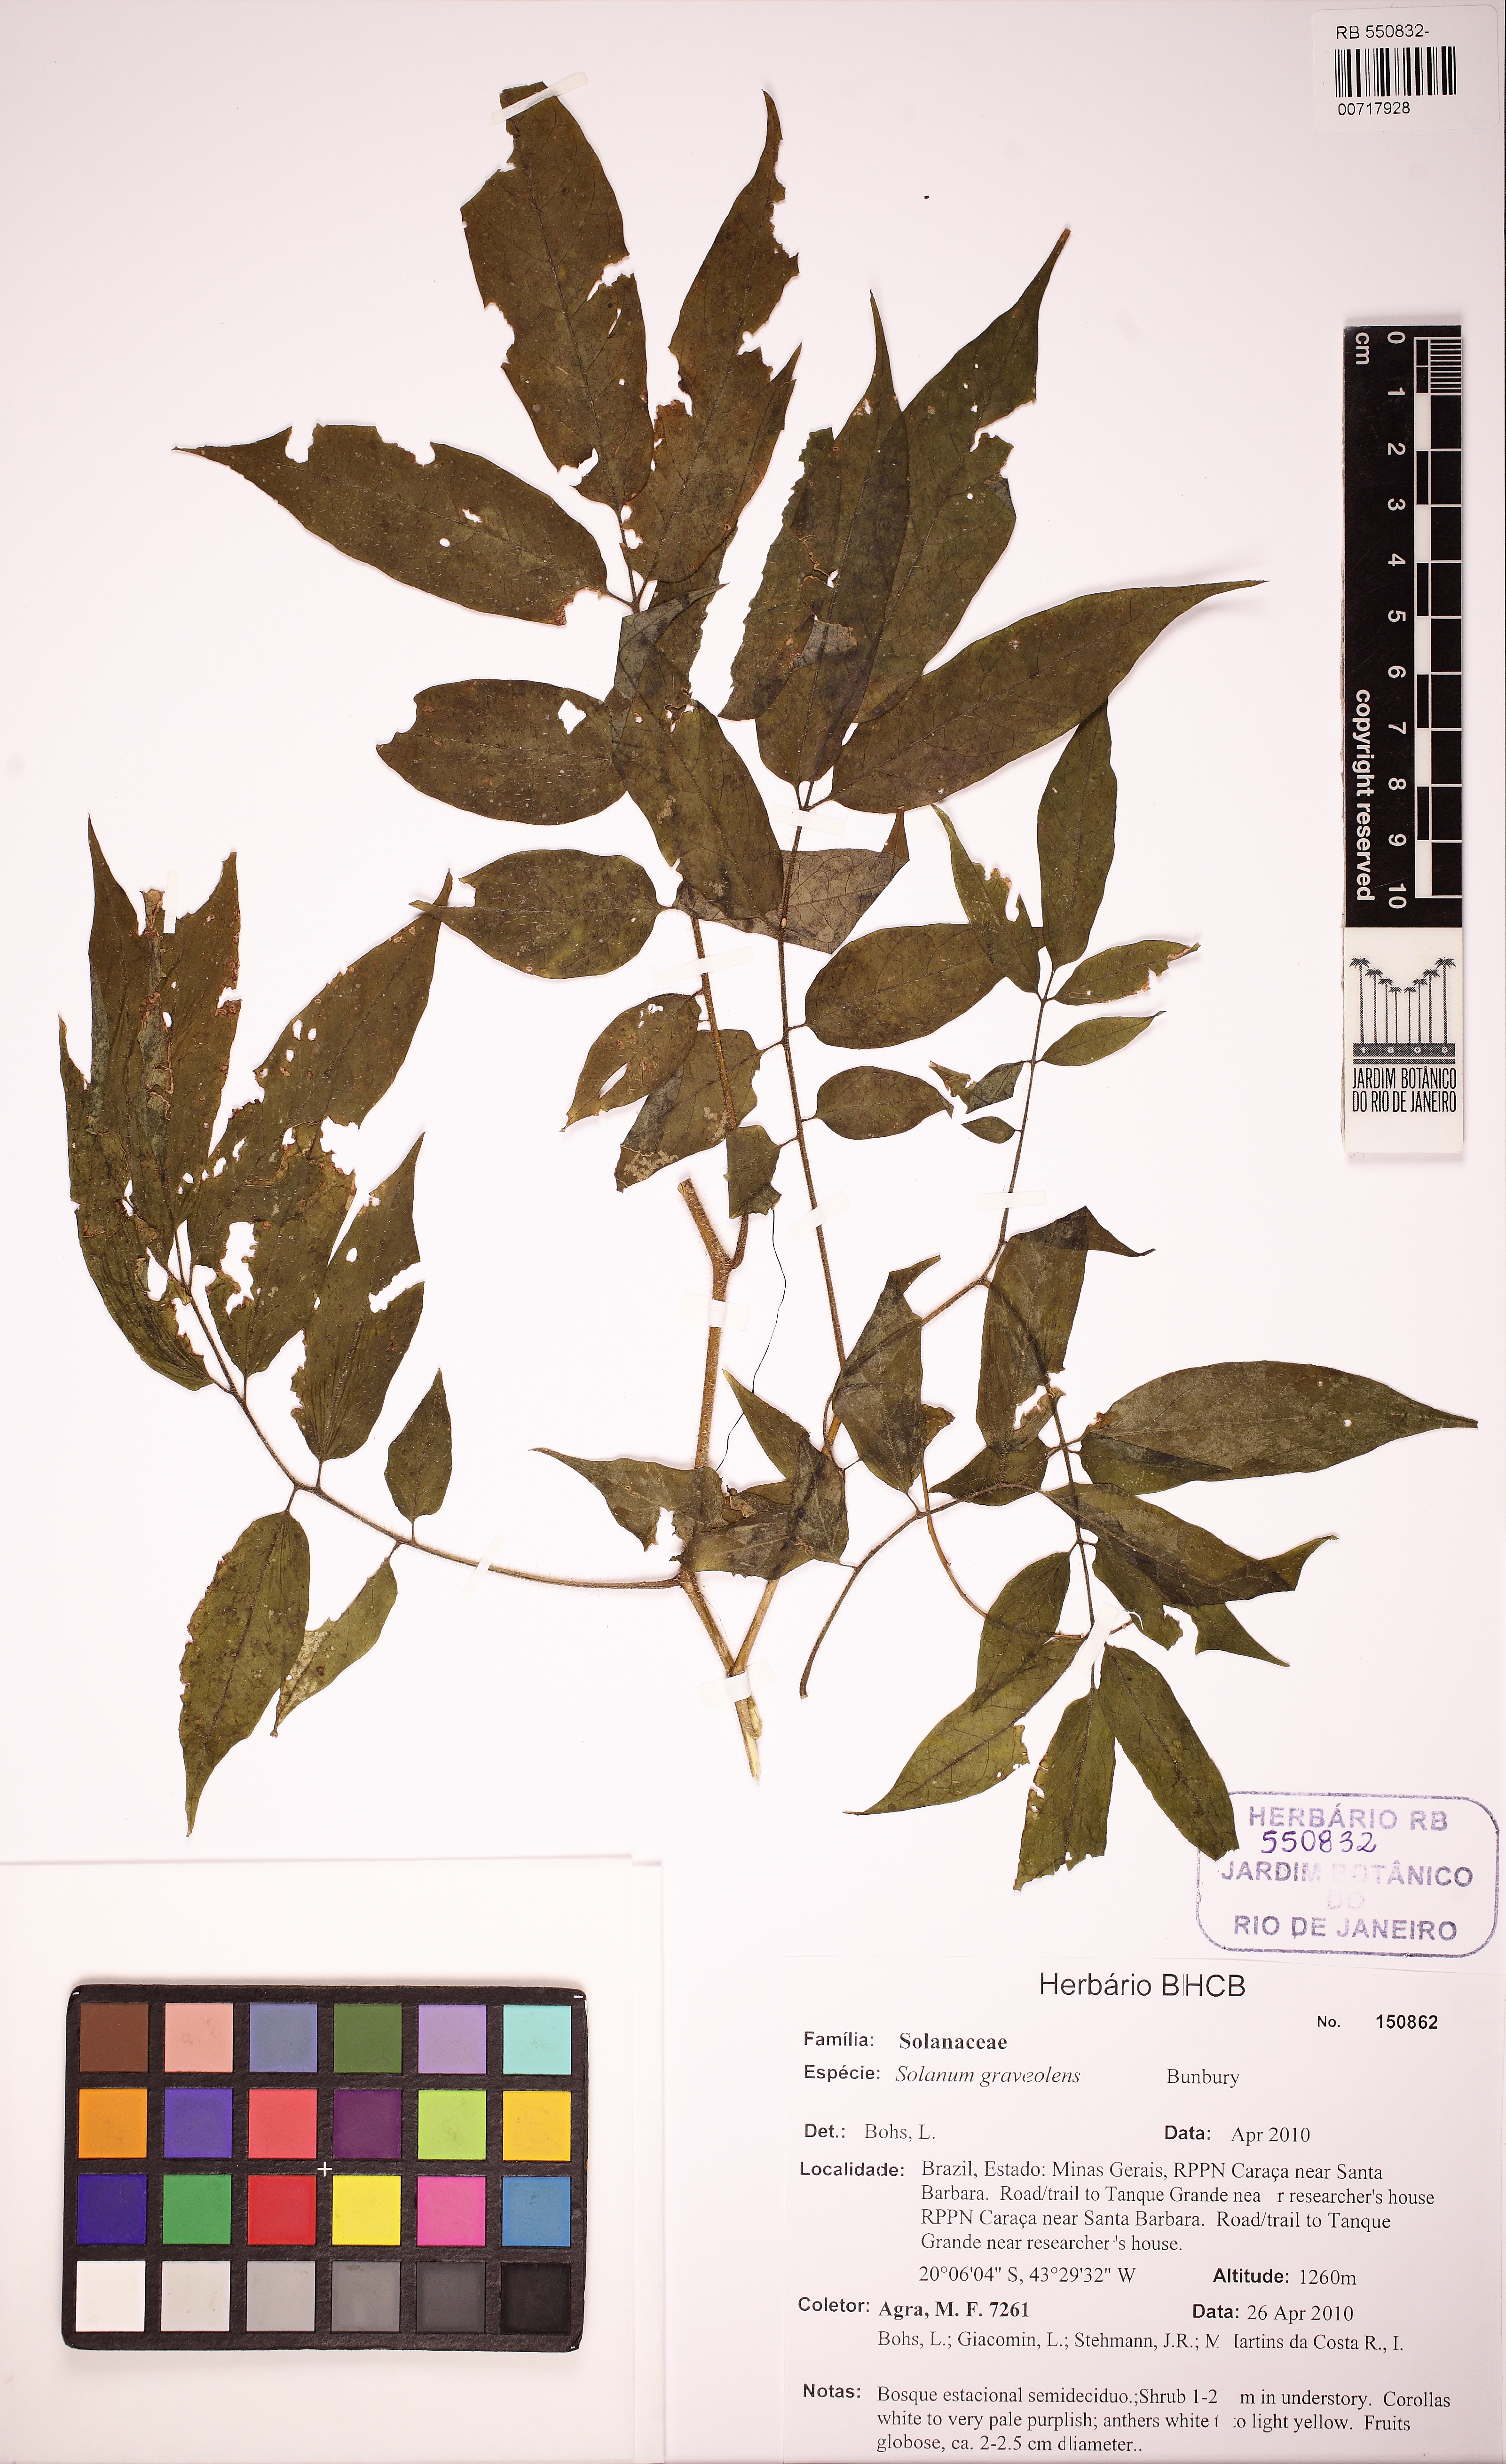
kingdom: Plantae
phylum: Tracheophyta
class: Magnoliopsida
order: Solanales
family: Solanaceae
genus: Solanum
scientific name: Solanum graveolens
